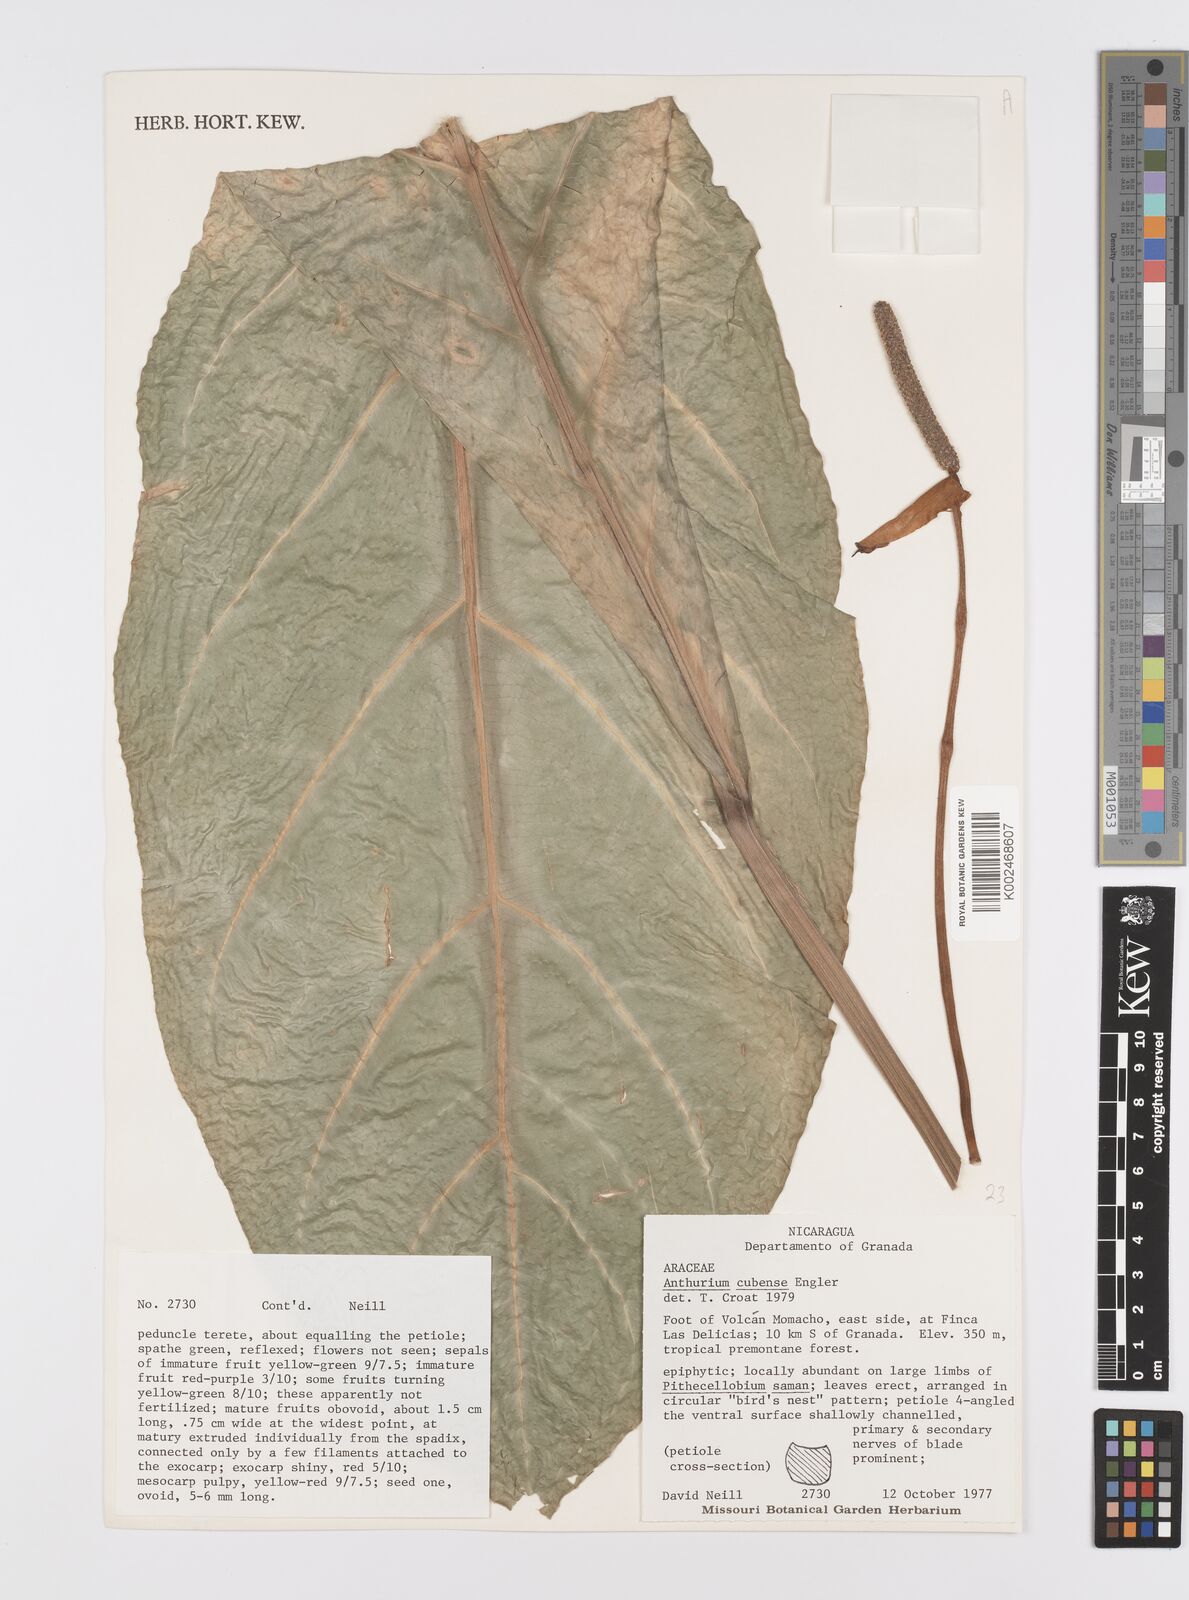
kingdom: Plantae
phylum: Tracheophyta
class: Liliopsida
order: Alismatales
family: Araceae
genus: Anthurium
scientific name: Anthurium cubense
